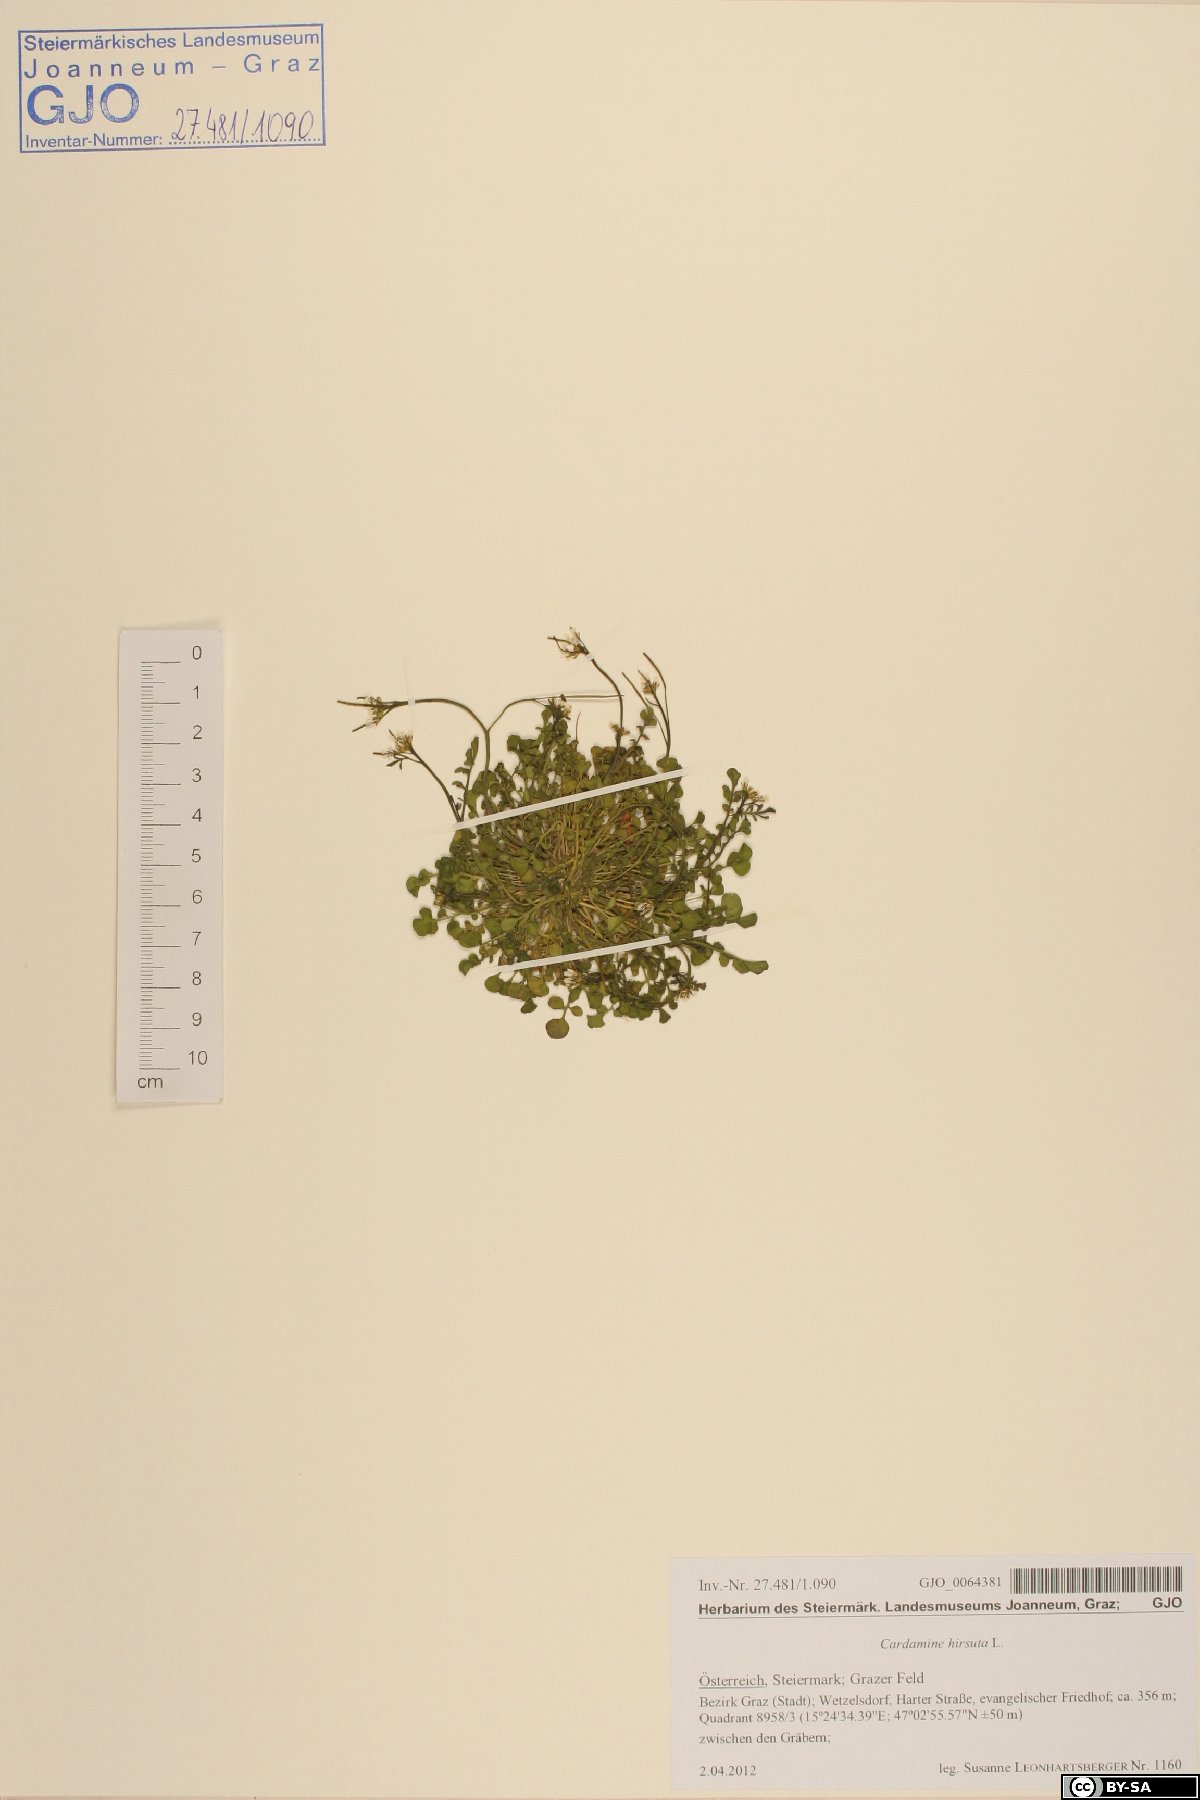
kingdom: Plantae
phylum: Tracheophyta
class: Magnoliopsida
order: Brassicales
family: Brassicaceae
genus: Cardamine
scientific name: Cardamine hirsuta
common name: Hairy bittercress
